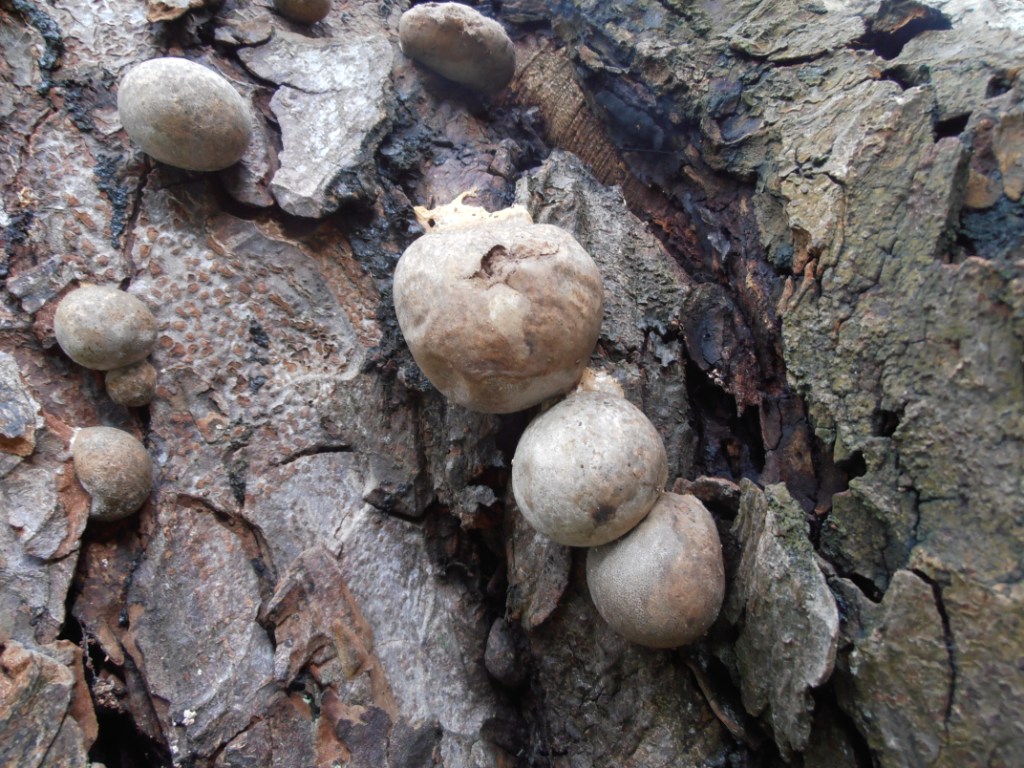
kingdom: Protozoa
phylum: Mycetozoa
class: Myxomycetes
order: Cribrariales
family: Tubiferaceae
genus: Lycogala
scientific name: Lycogala flavofuscum
